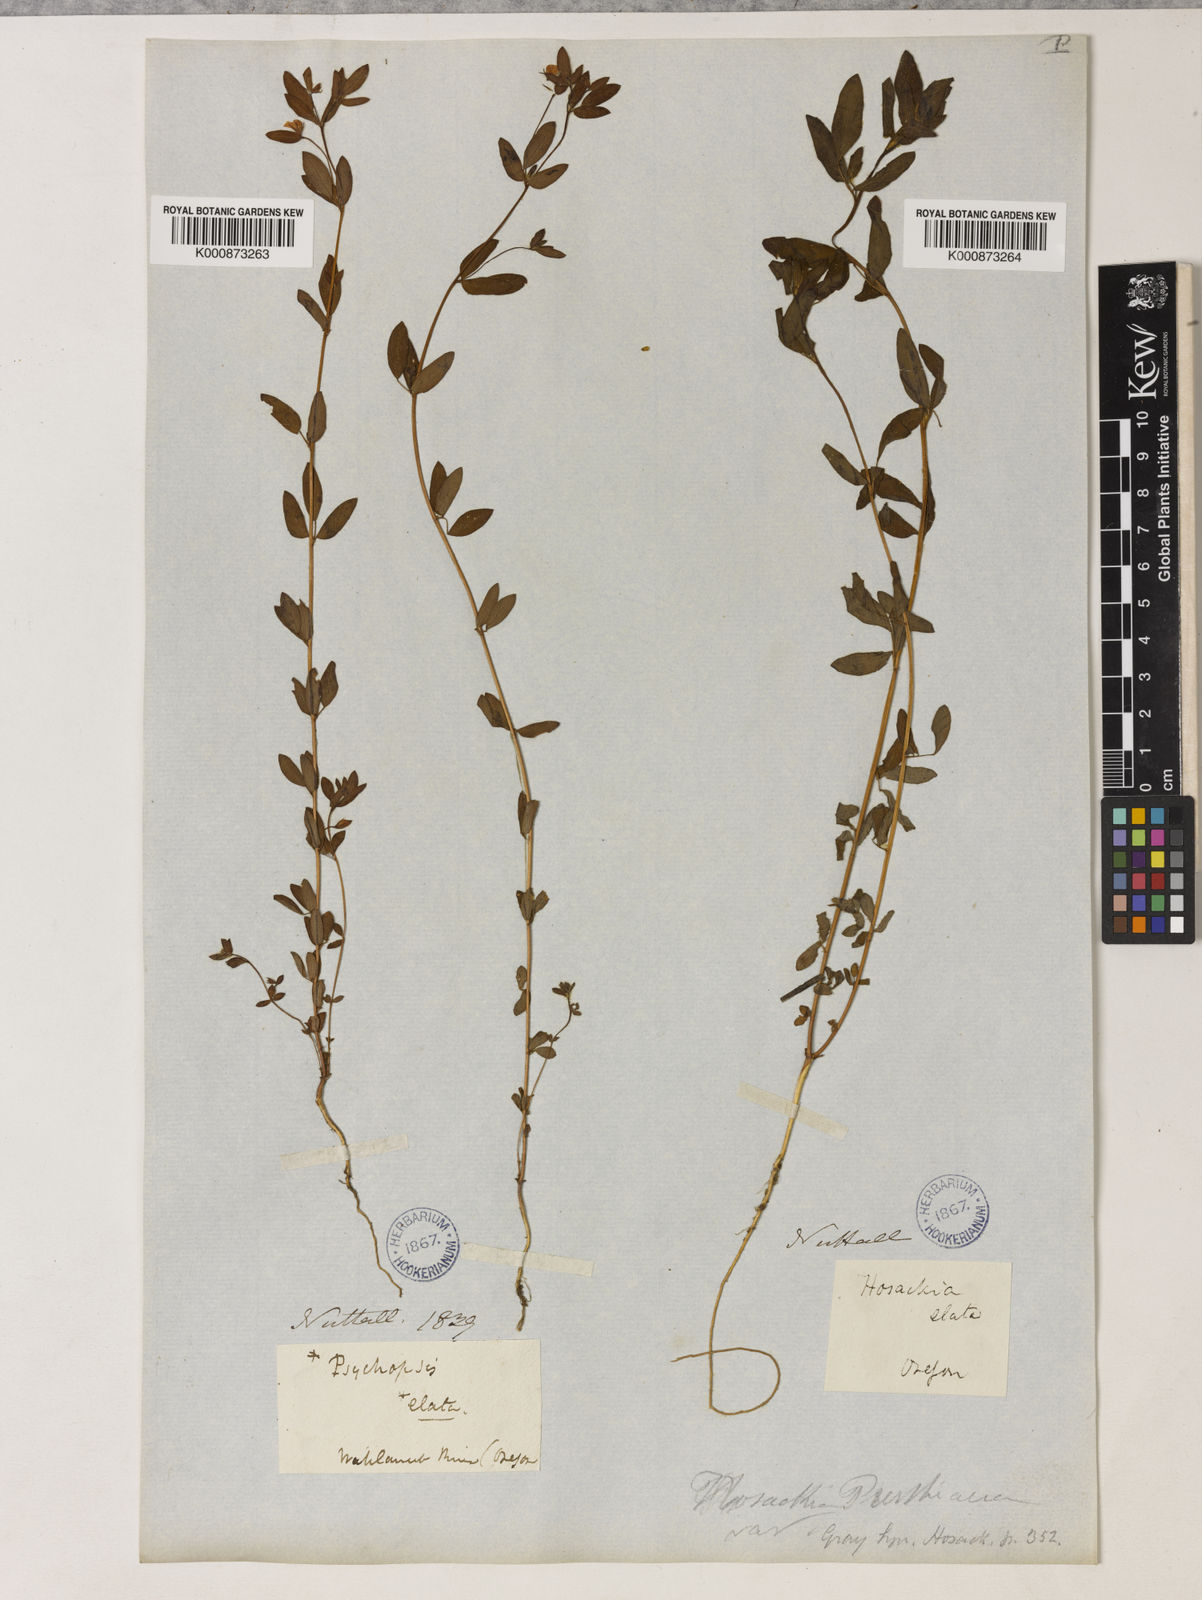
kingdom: Plantae
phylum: Tracheophyta
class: Magnoliopsida
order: Fabales
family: Fabaceae
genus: Collaea
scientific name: Collaea speciosa
